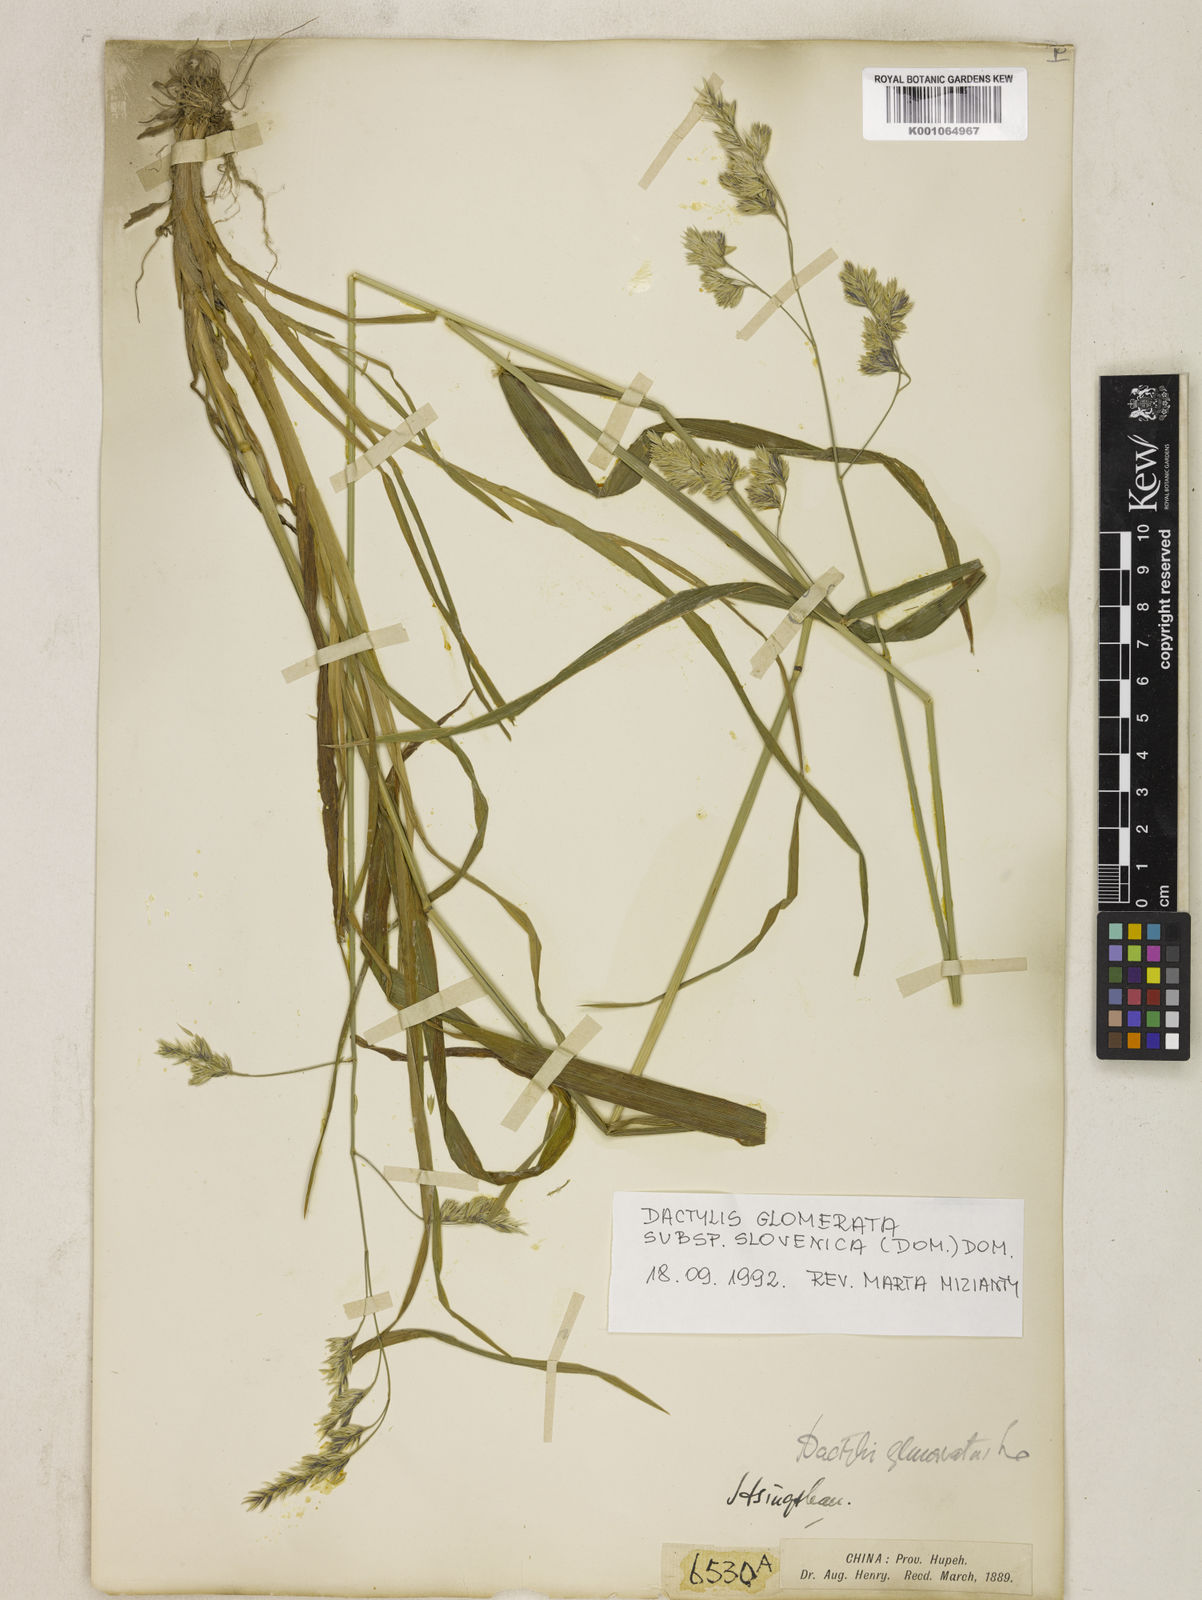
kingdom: Plantae
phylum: Tracheophyta
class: Liliopsida
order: Poales
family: Poaceae
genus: Dactylis
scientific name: Dactylis glomerata
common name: Orchardgrass
